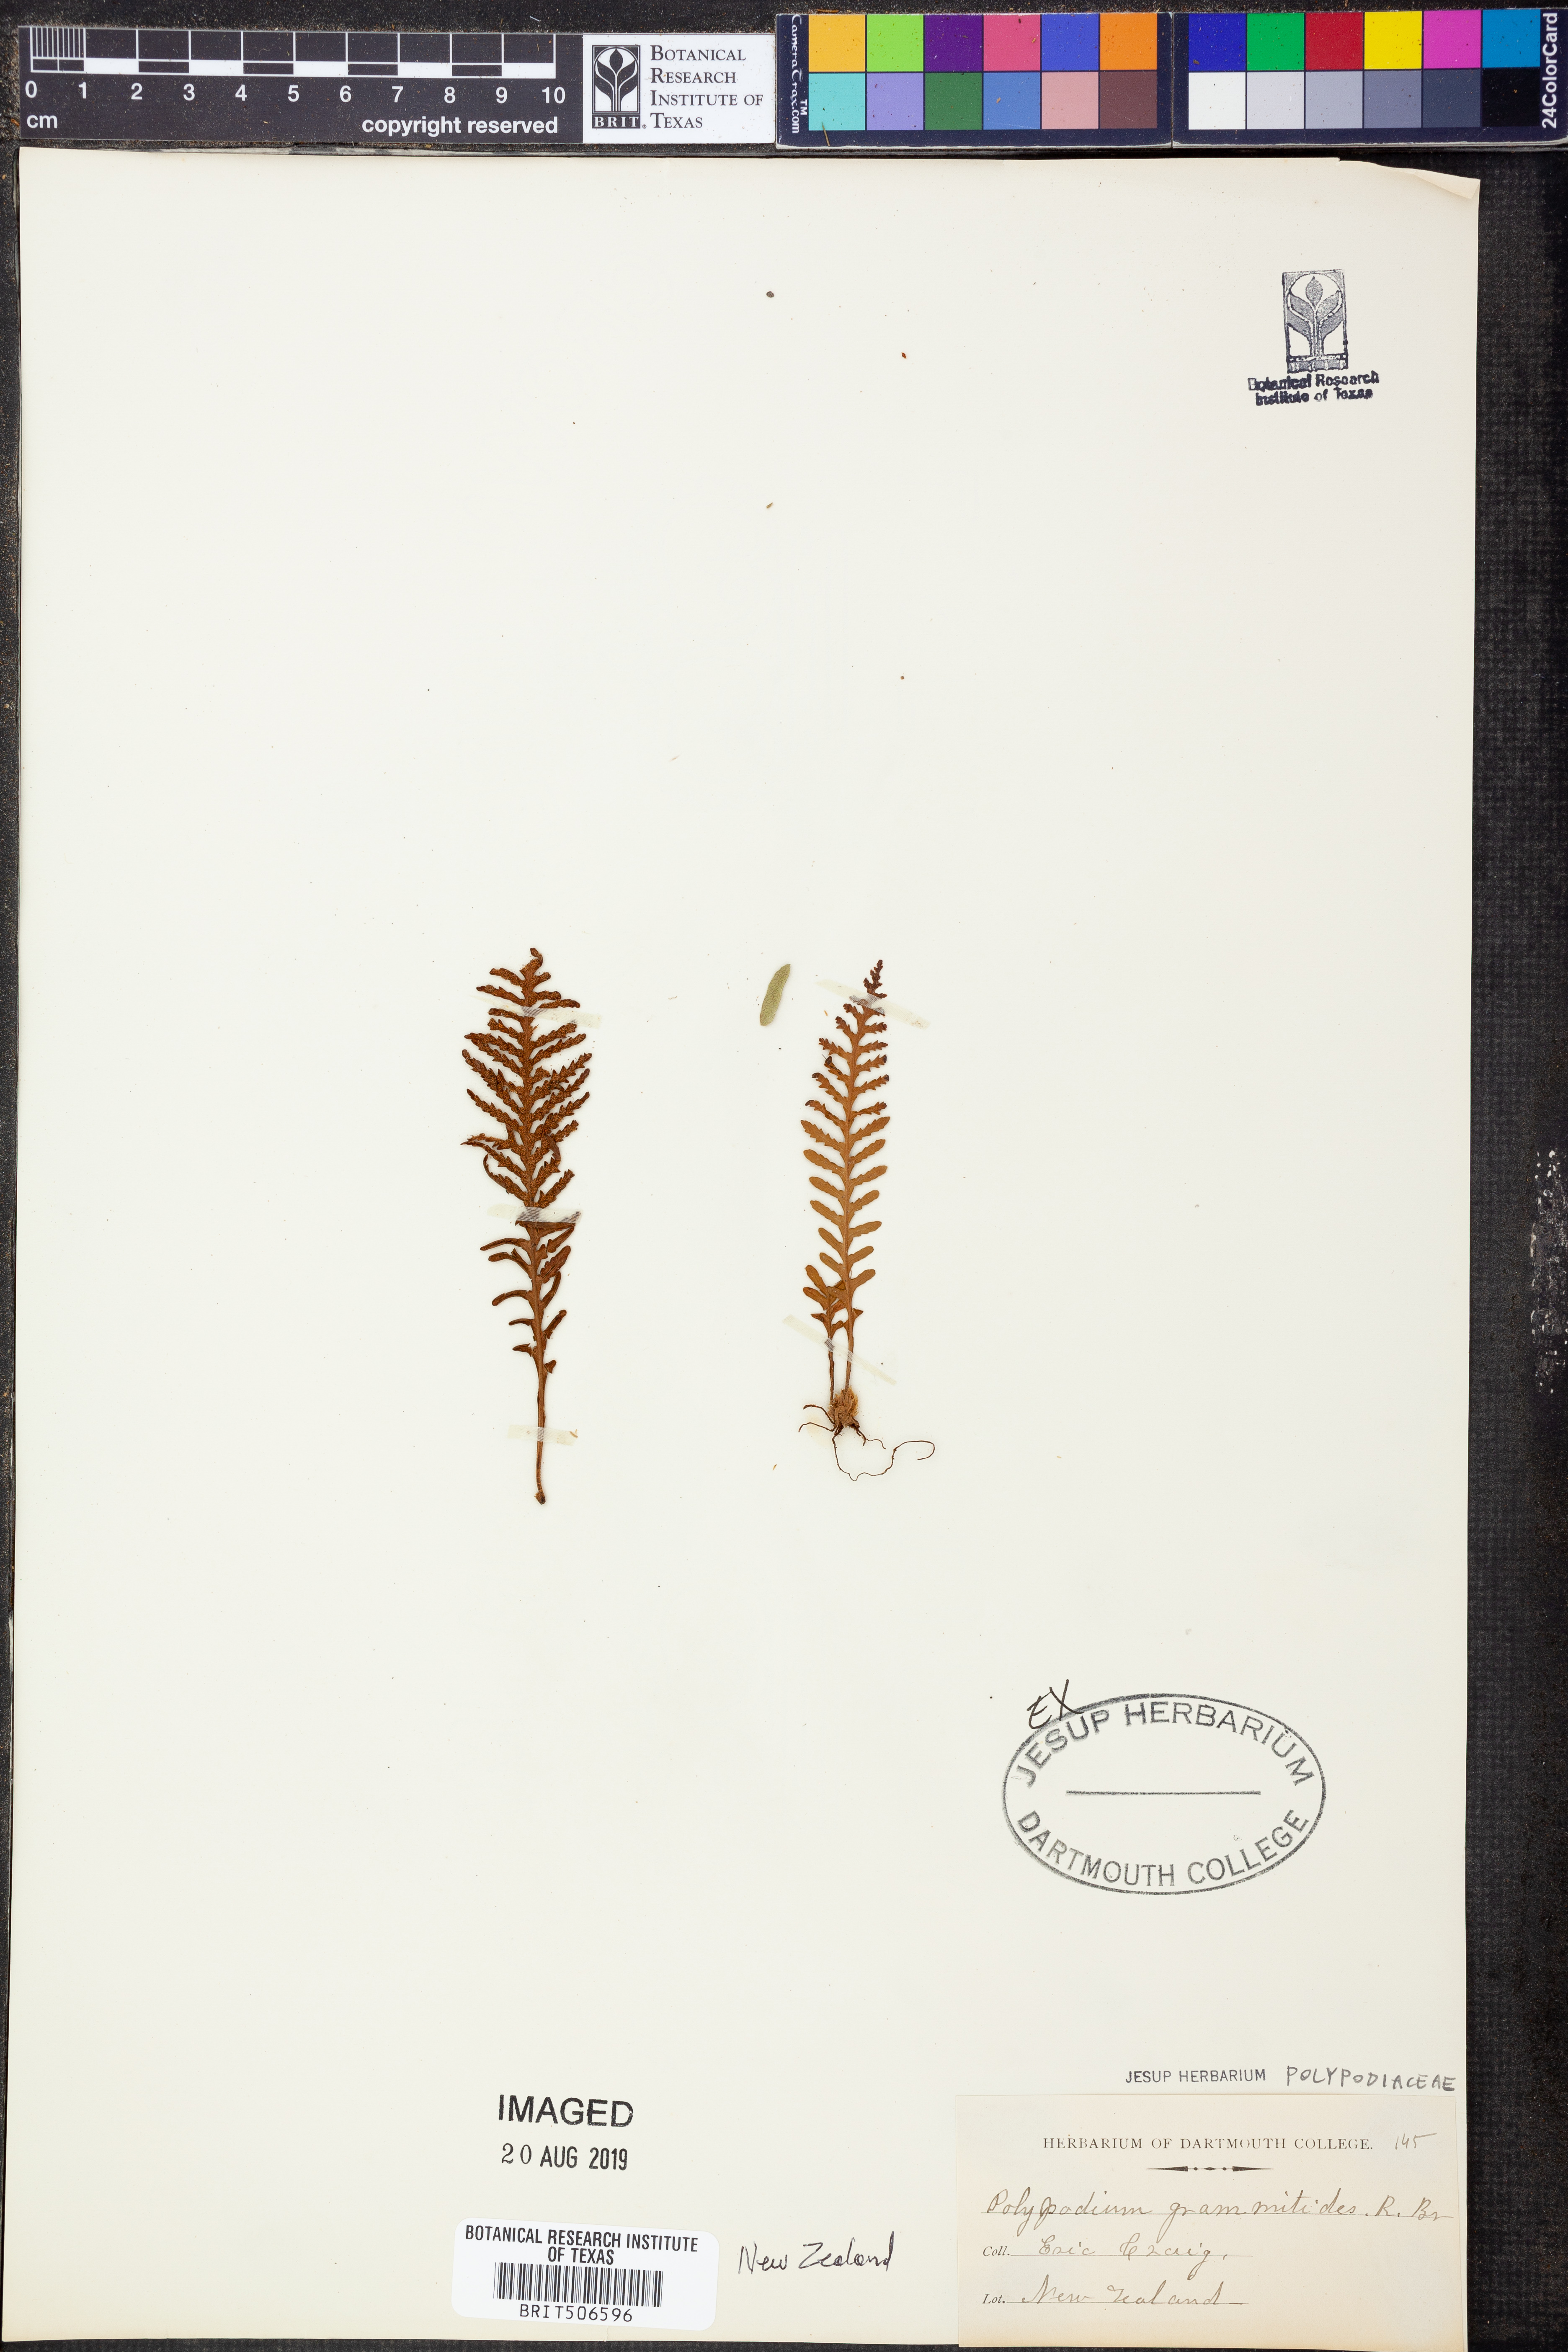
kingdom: Plantae
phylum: Tracheophyta
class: Polypodiopsida
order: Polypodiales
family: Polypodiaceae
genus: Notogrammitis
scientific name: Notogrammitis heterophylla
